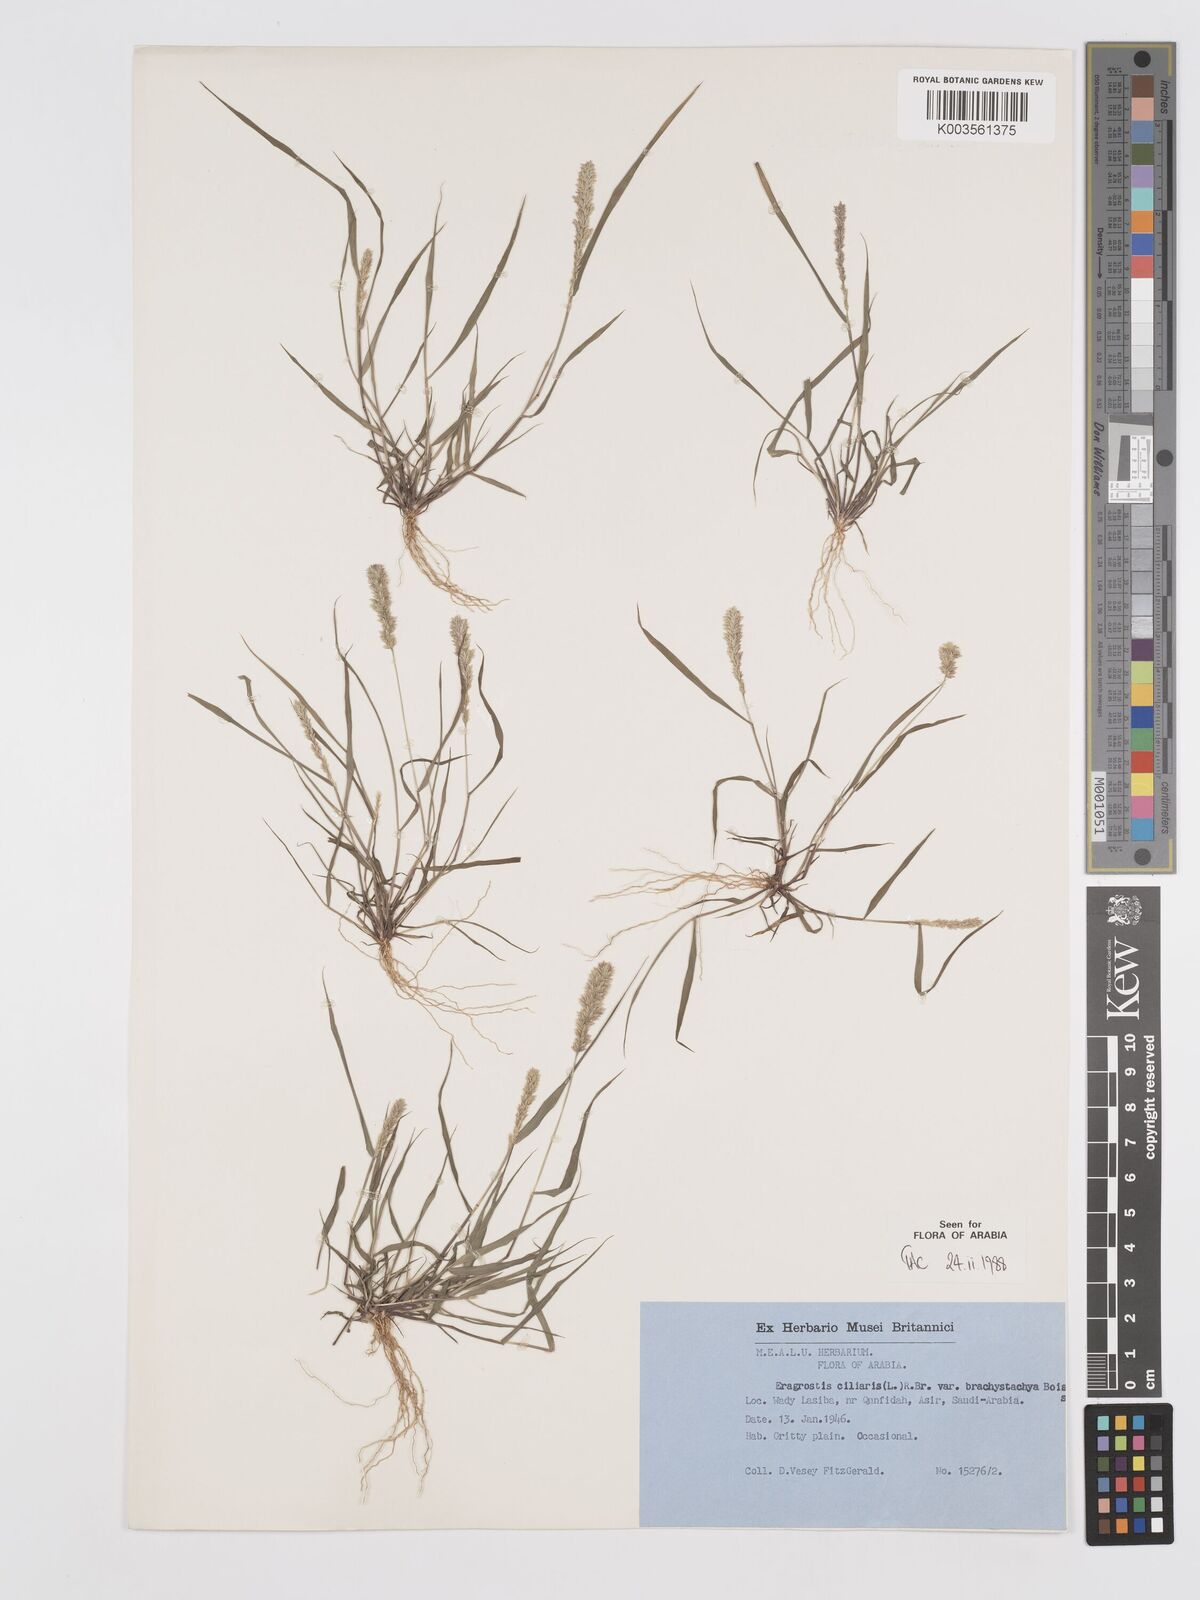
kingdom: Plantae
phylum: Tracheophyta
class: Liliopsida
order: Poales
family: Poaceae
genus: Eragrostis
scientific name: Eragrostis ciliaris
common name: Gophertail lovegrass
